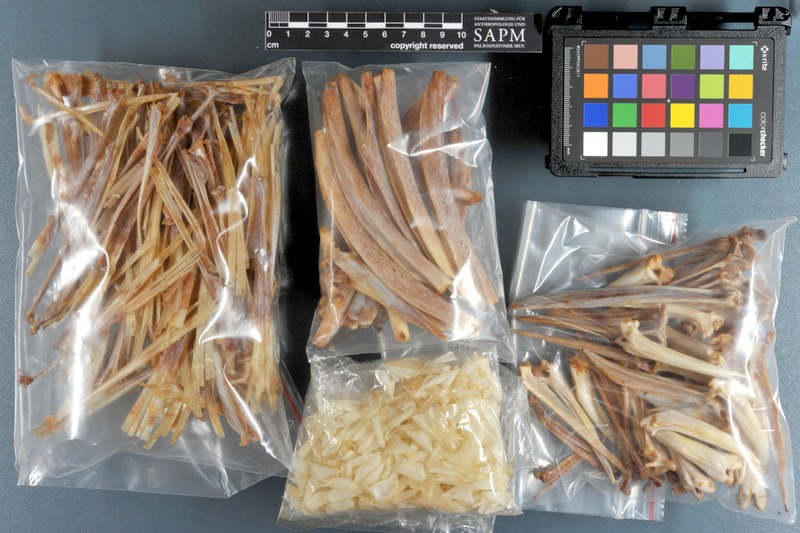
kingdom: Animalia
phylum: Chordata
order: Perciformes
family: Serranidae
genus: Epinephelus
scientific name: Epinephelus lanceolatus
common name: Giant grouper
